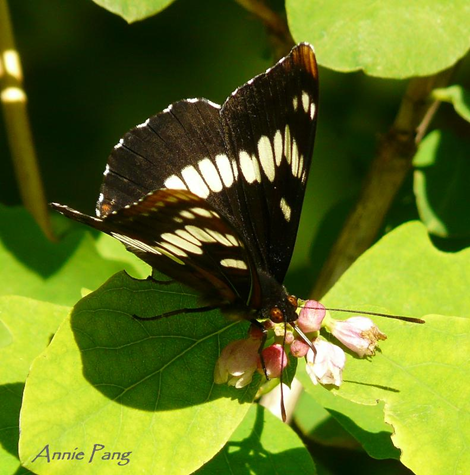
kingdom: Animalia
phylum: Arthropoda
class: Insecta
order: Lepidoptera
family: Nymphalidae
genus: Limenitis
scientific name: Limenitis lorquini
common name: Lorquin's Admiral
